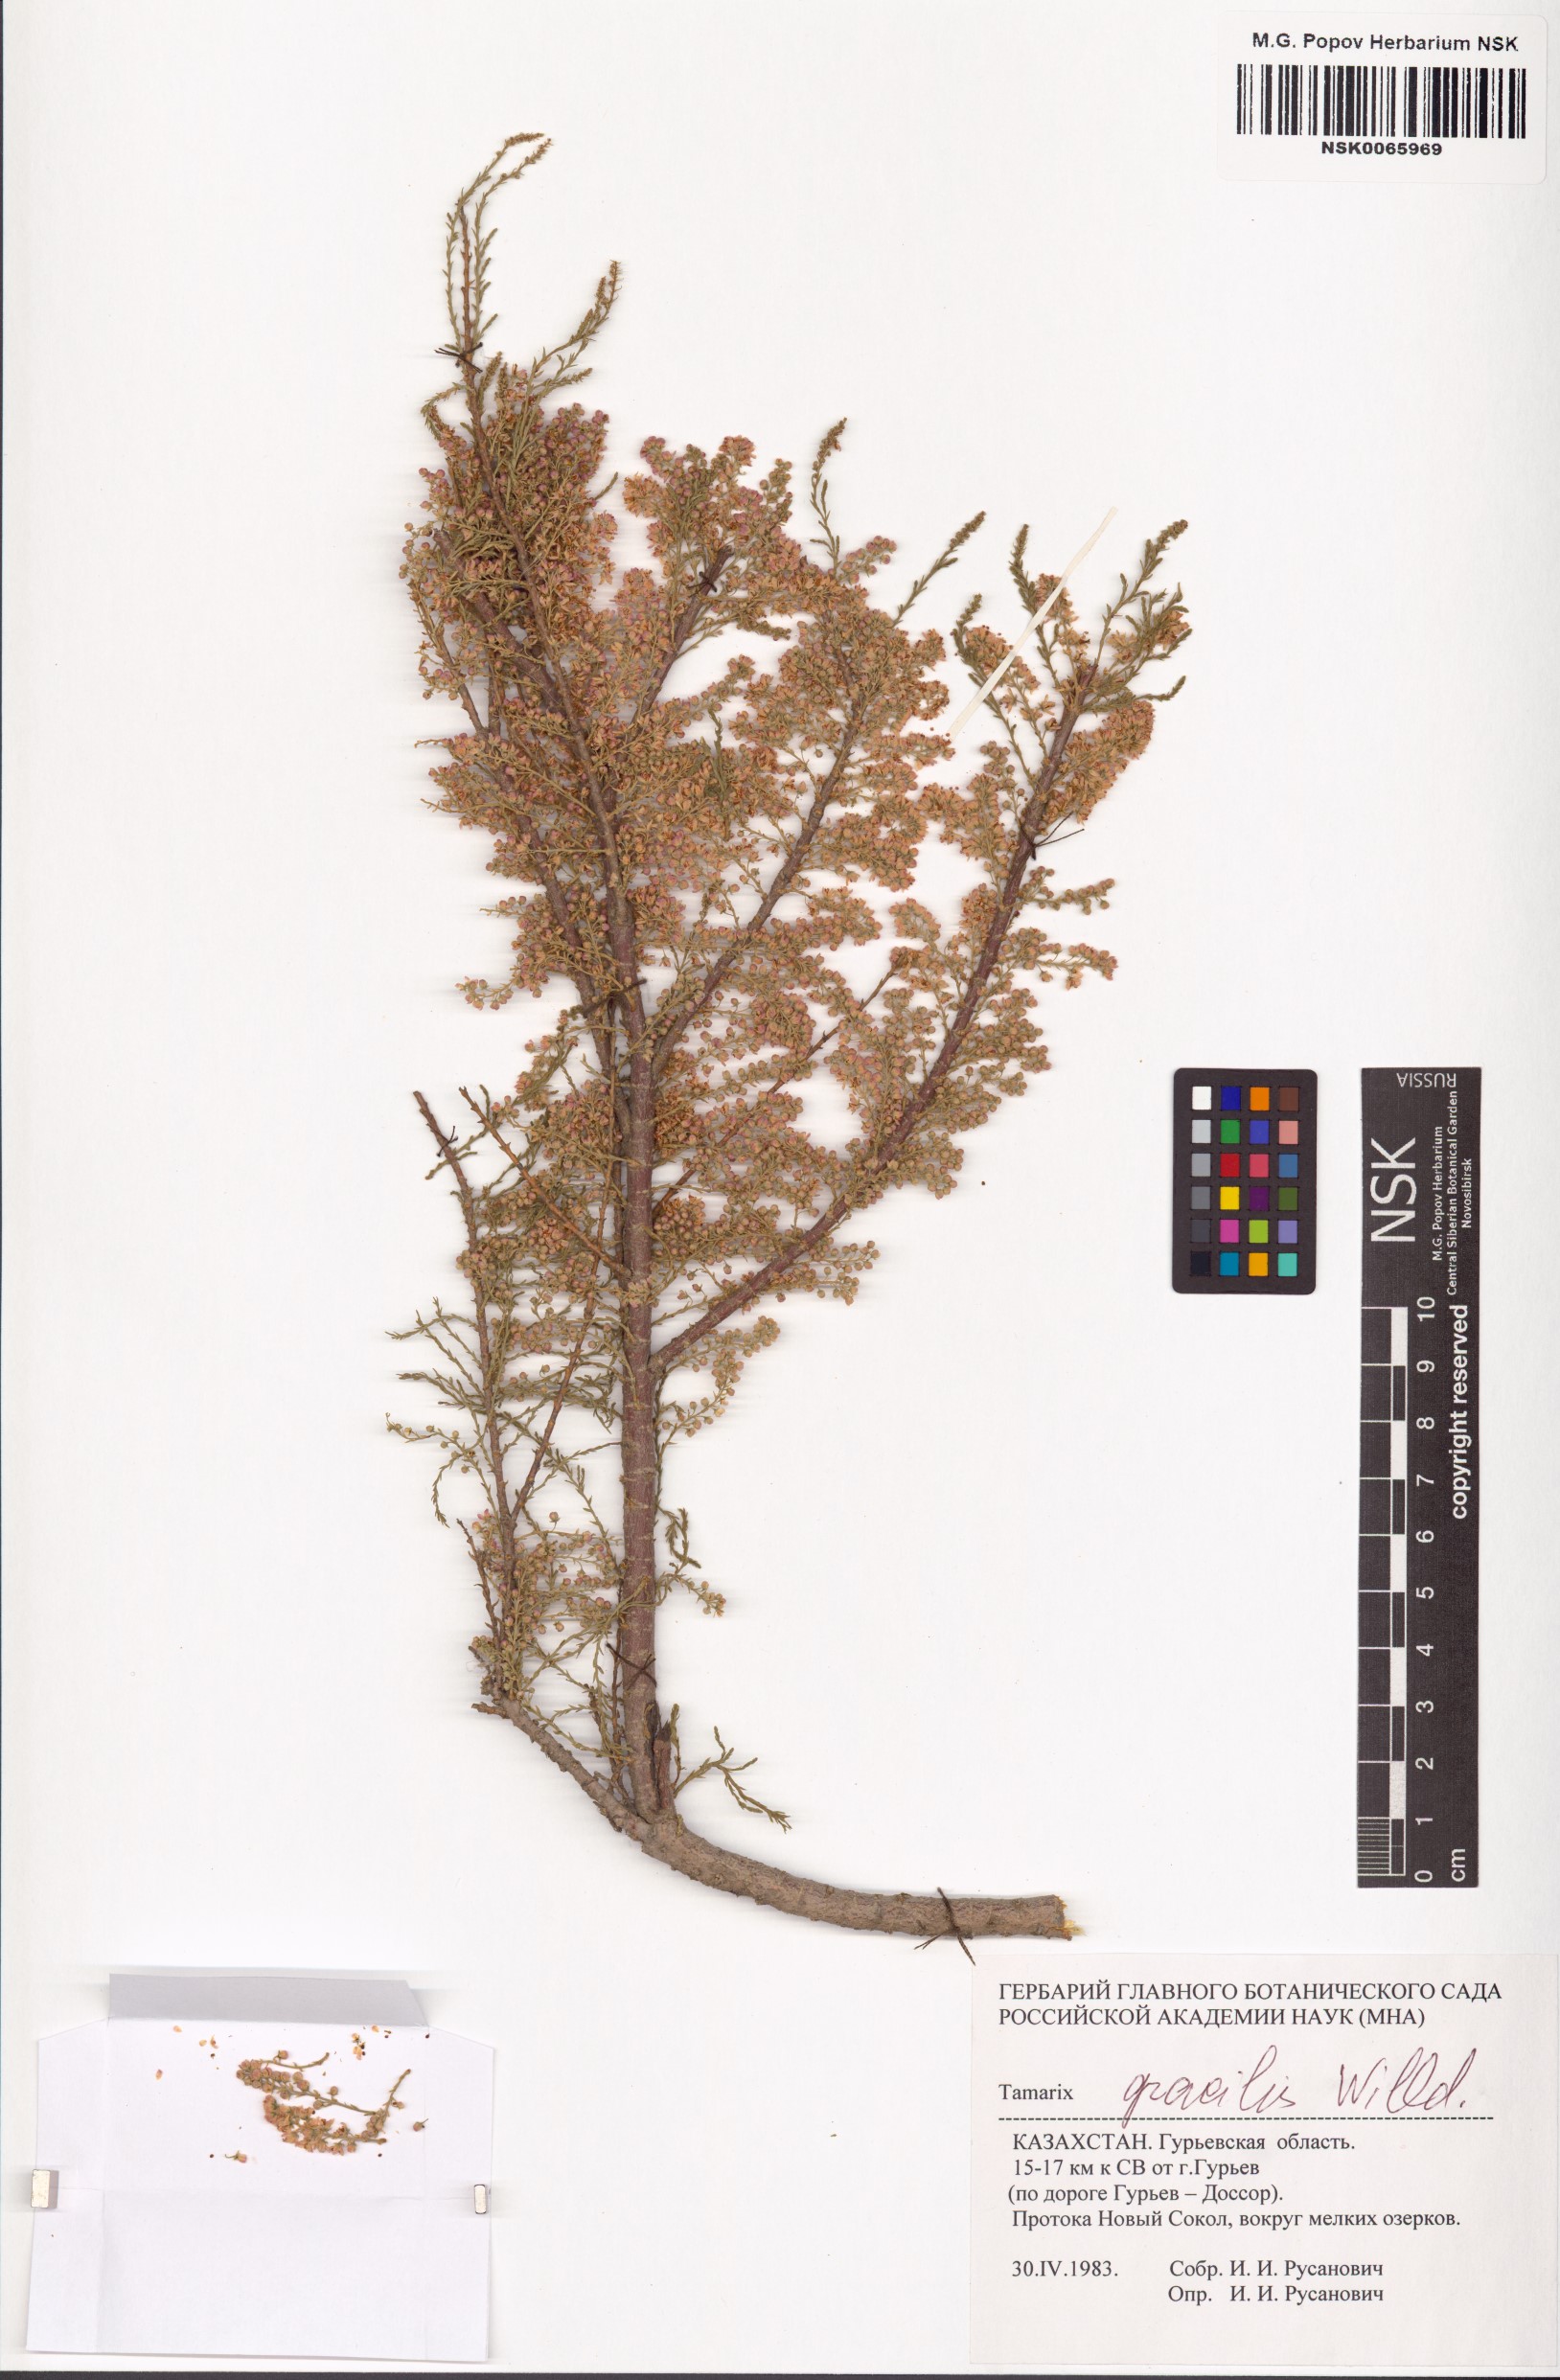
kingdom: Plantae
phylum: Tracheophyta
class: Magnoliopsida
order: Caryophyllales
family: Tamaricaceae
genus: Tamarix
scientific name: Tamarix gracilis
